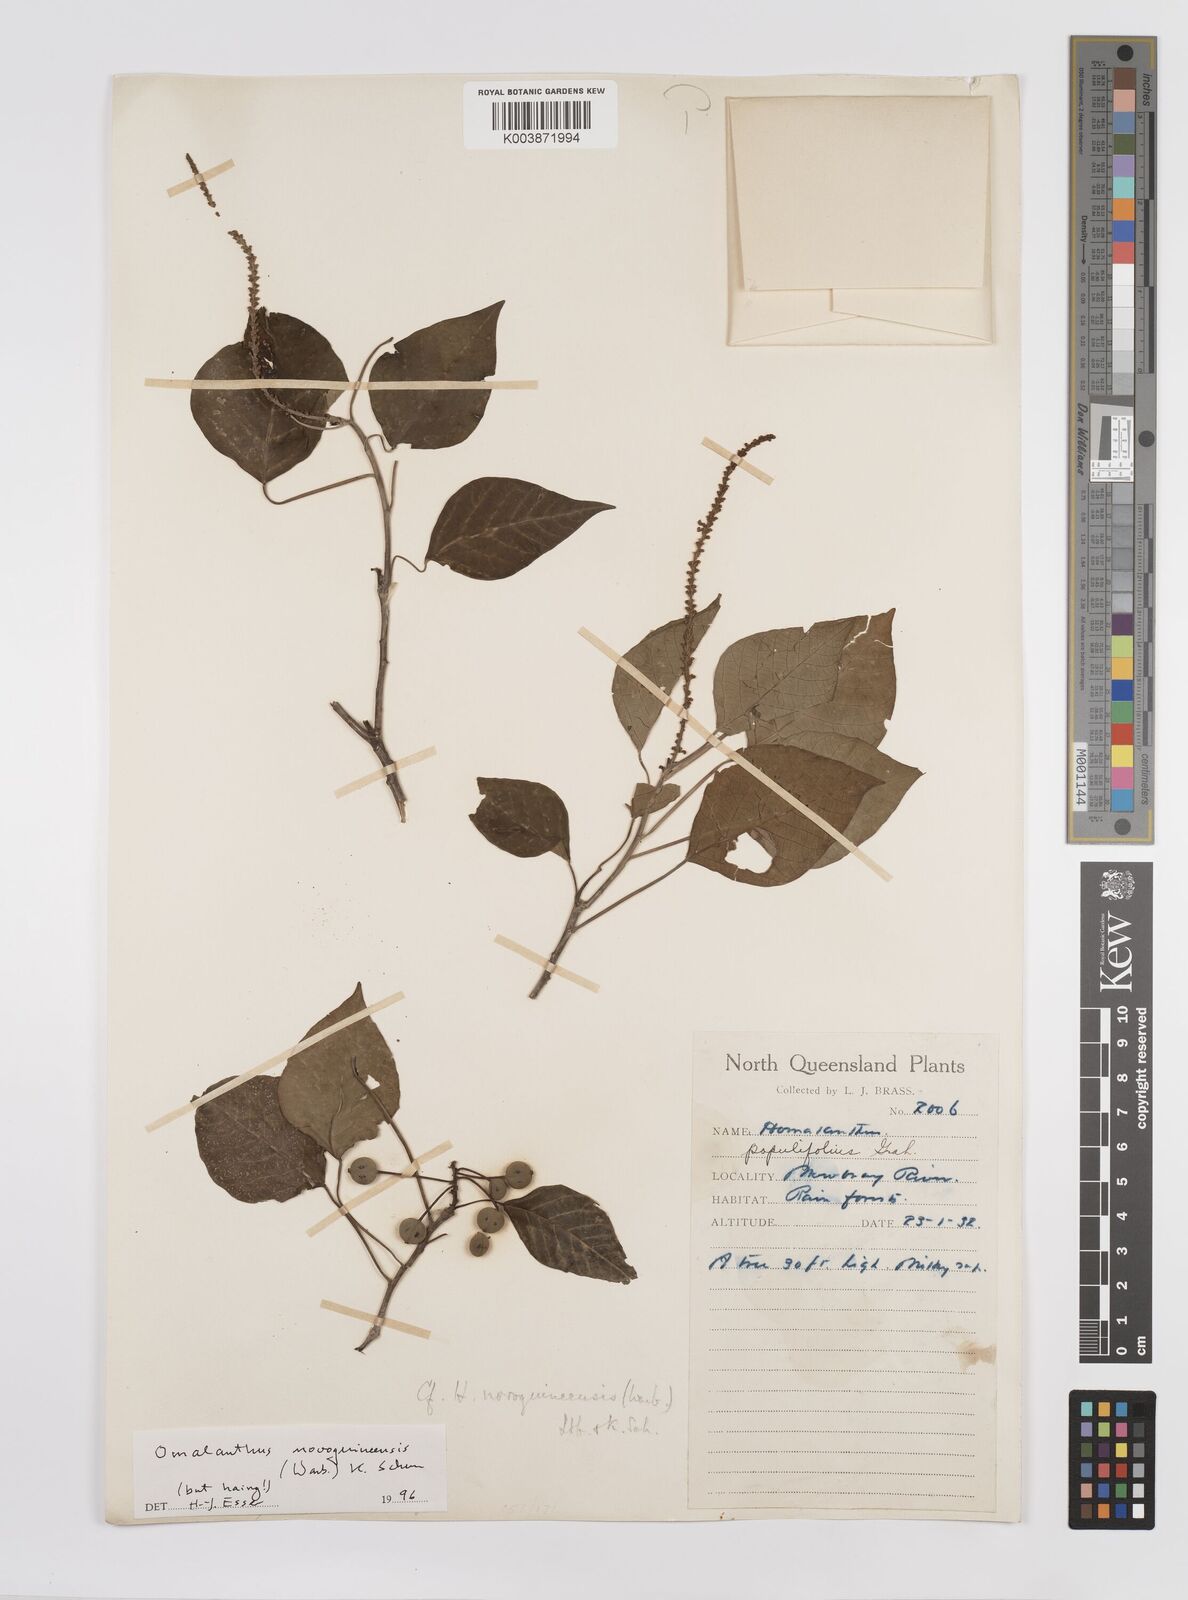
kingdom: Plantae
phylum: Tracheophyta
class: Magnoliopsida
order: Malpighiales
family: Euphorbiaceae
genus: Homalanthus
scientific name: Homalanthus novoguineensis
